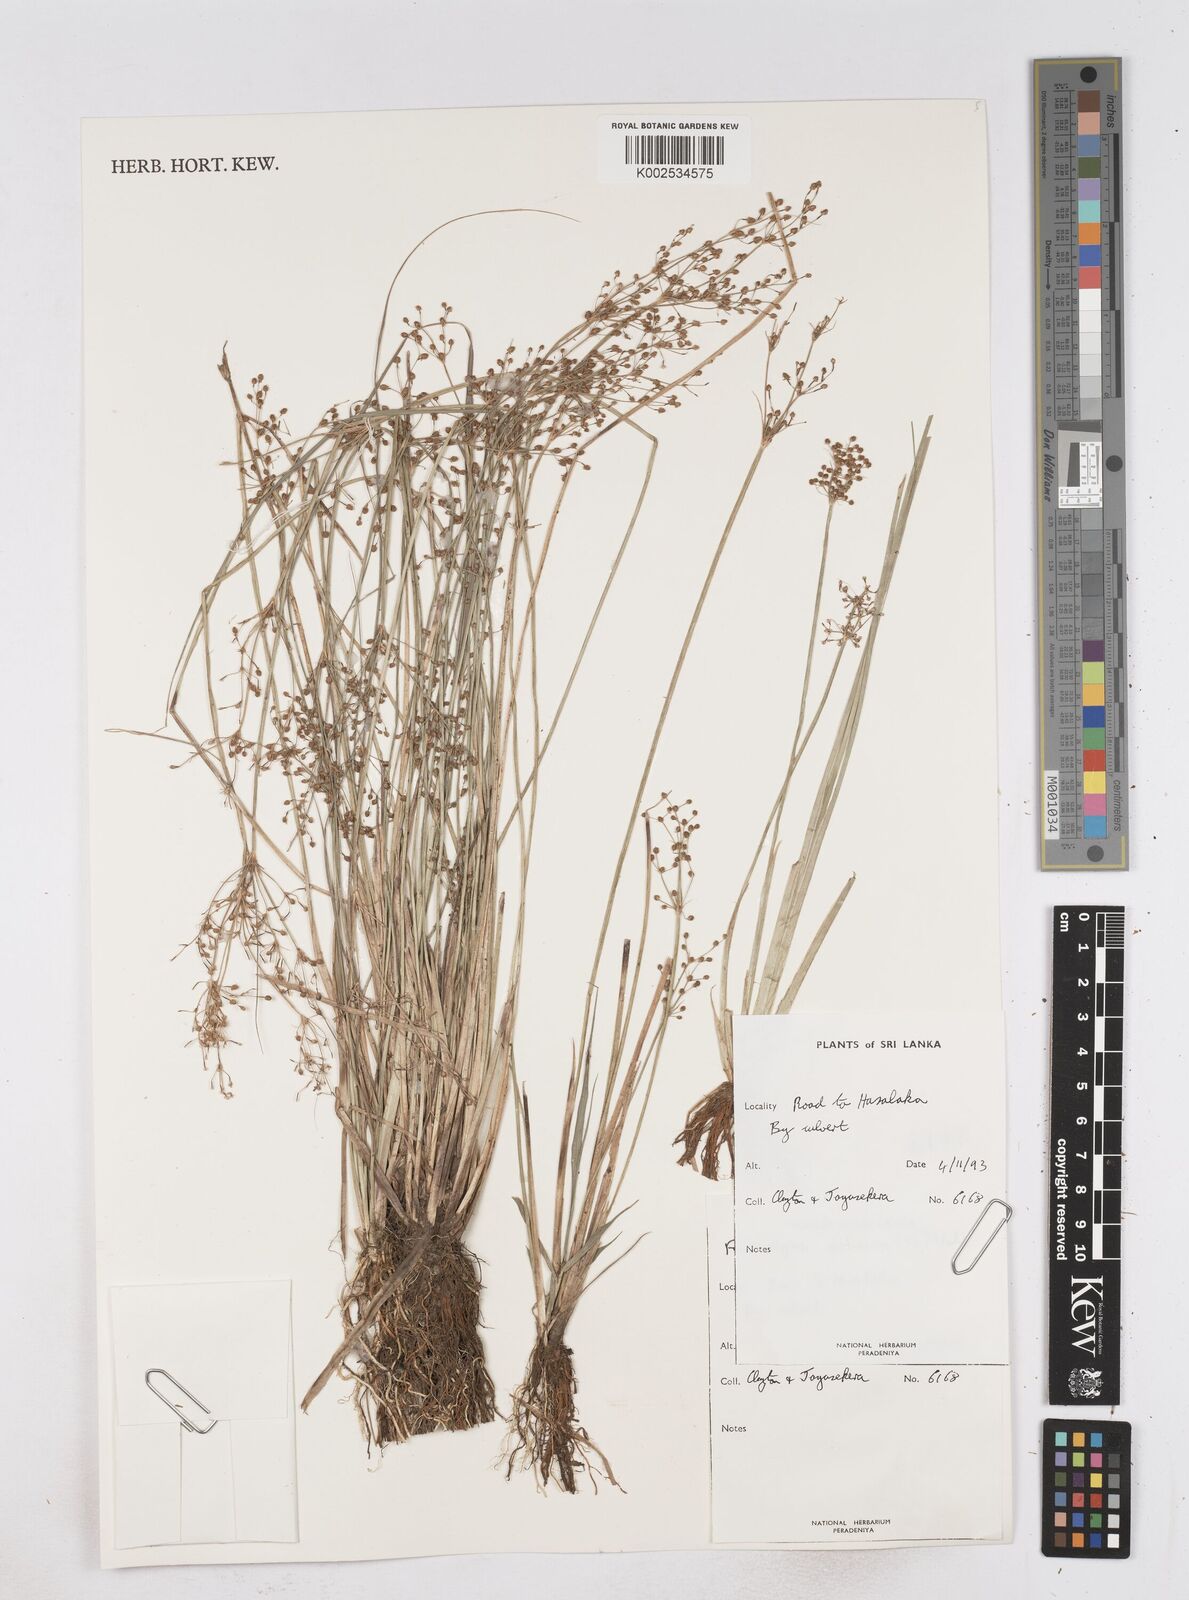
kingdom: Plantae
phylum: Tracheophyta
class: Liliopsida
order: Poales
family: Cyperaceae
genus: Fimbristylis
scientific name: Fimbristylis quinquangularis
